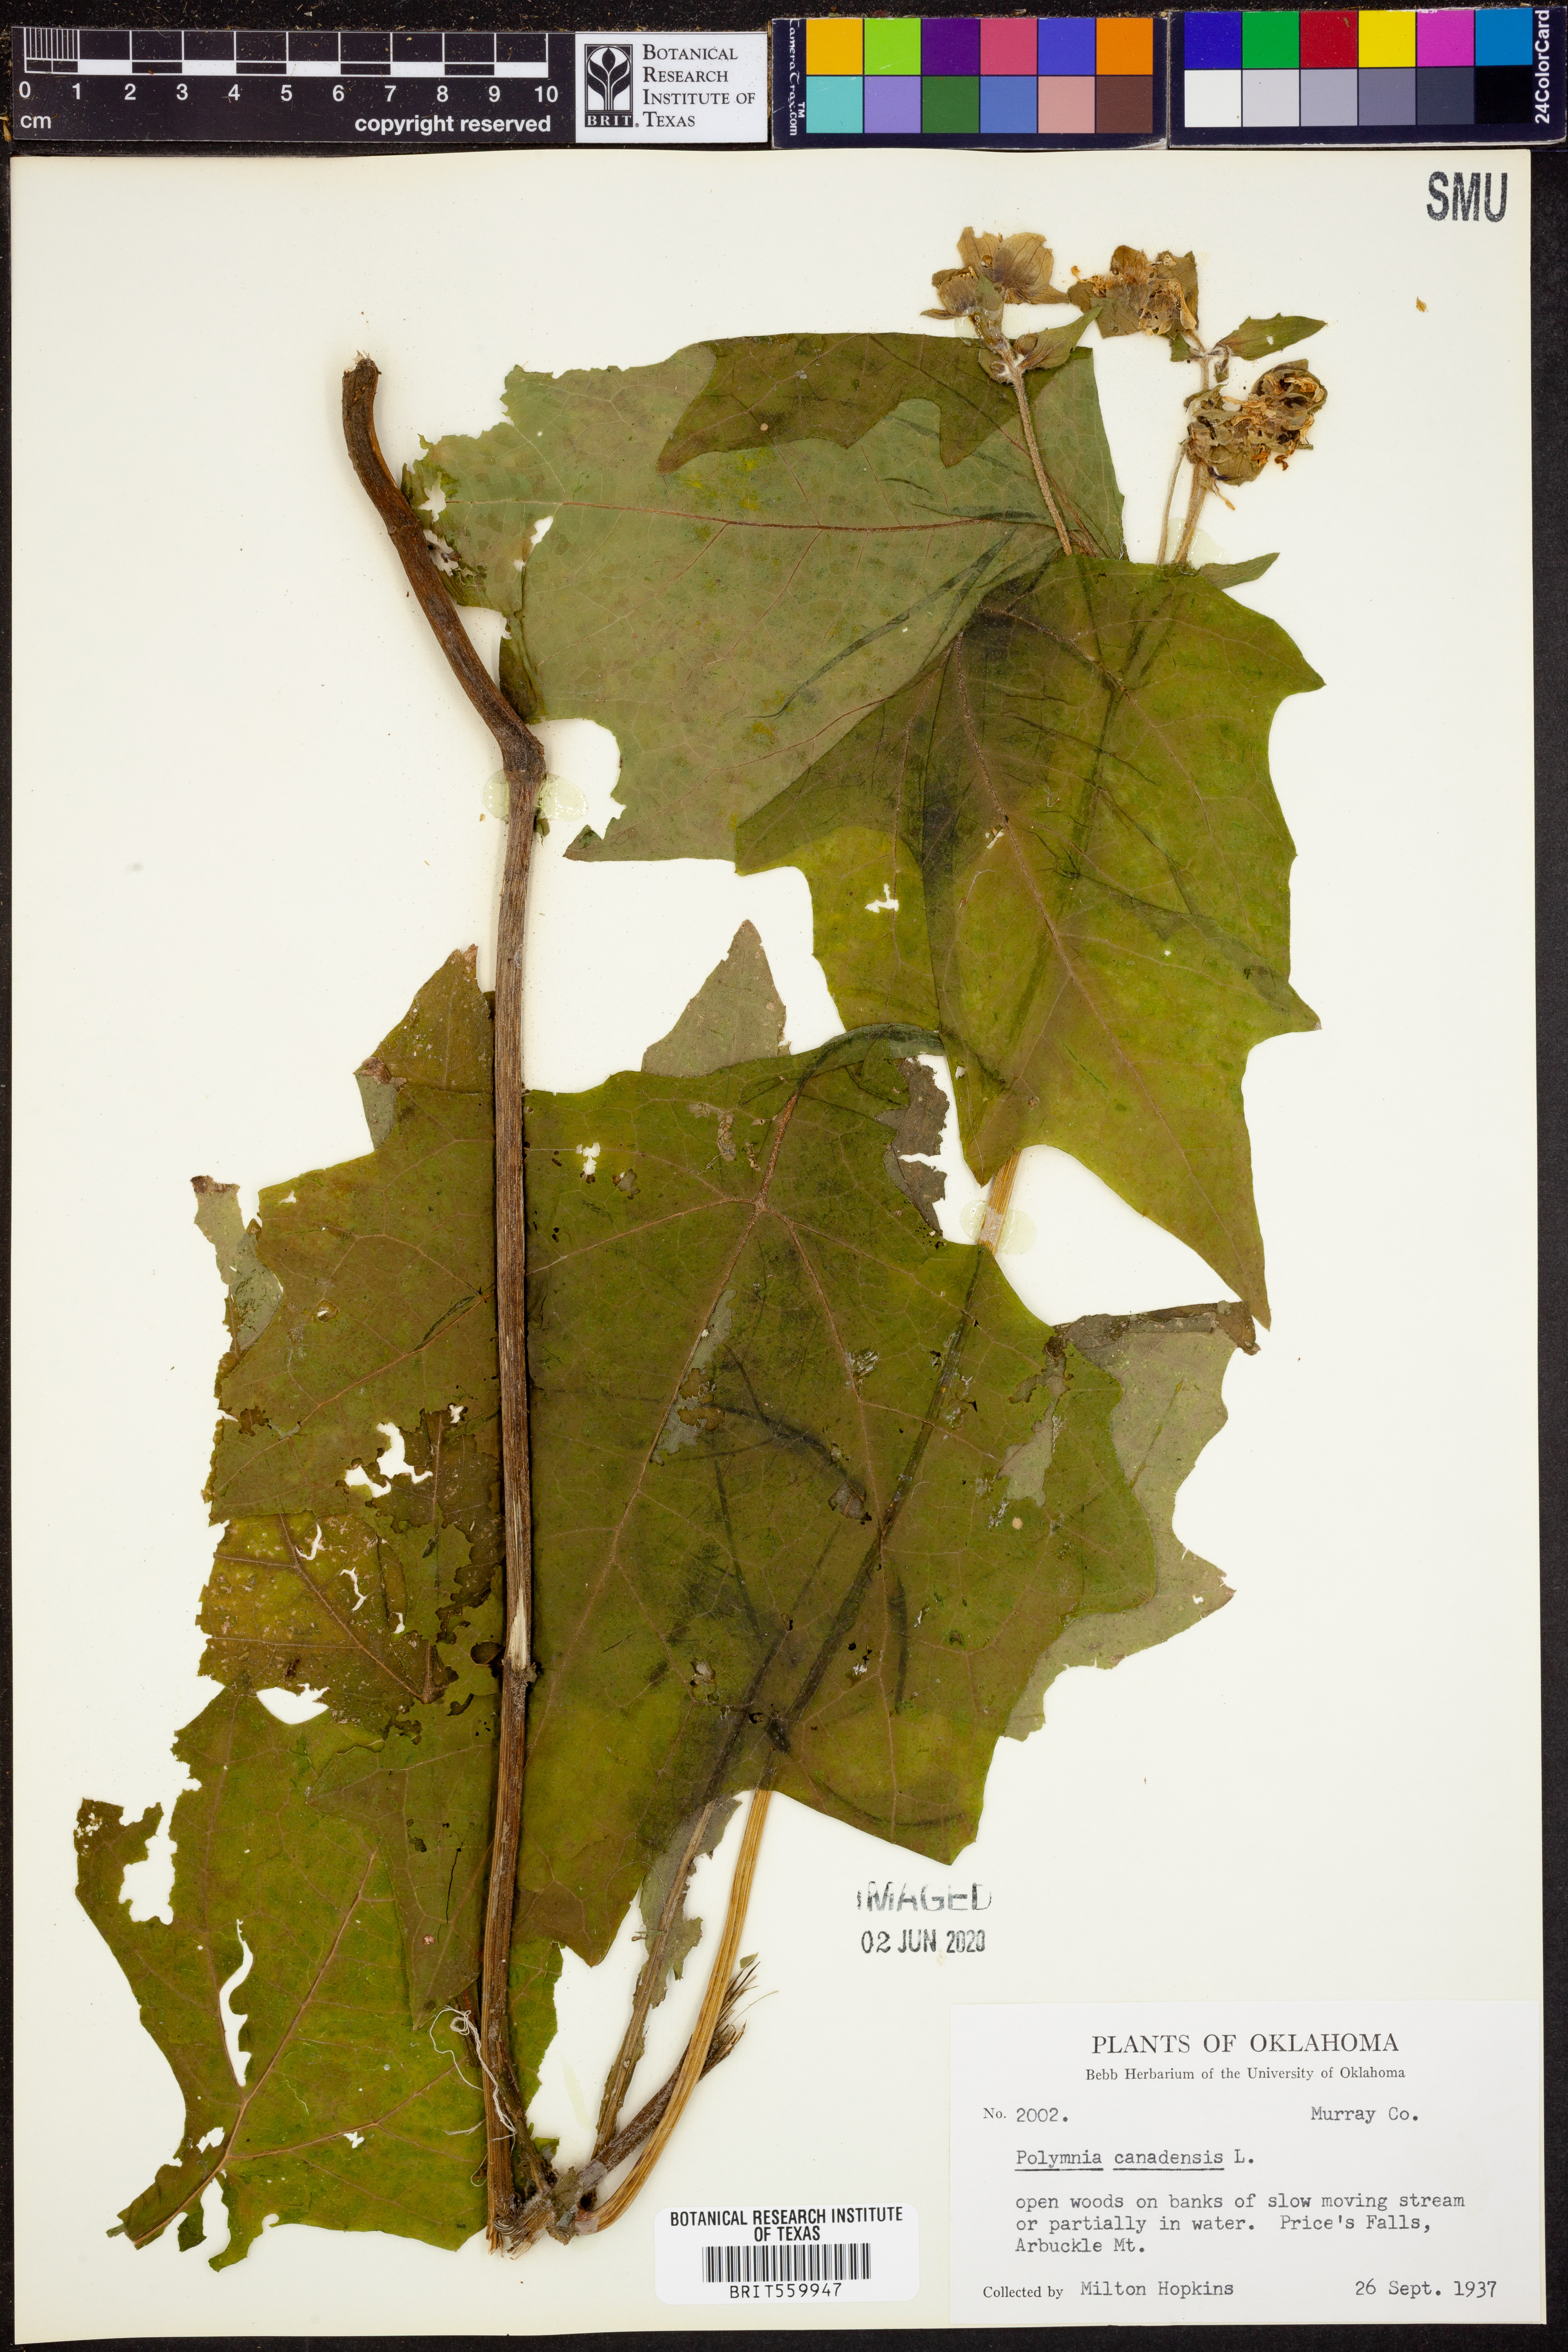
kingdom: Plantae
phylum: Tracheophyta
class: Magnoliopsida
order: Asterales
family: Asteraceae
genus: Polymnia
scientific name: Polymnia canadensis
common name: Pale-flowered leafcup
